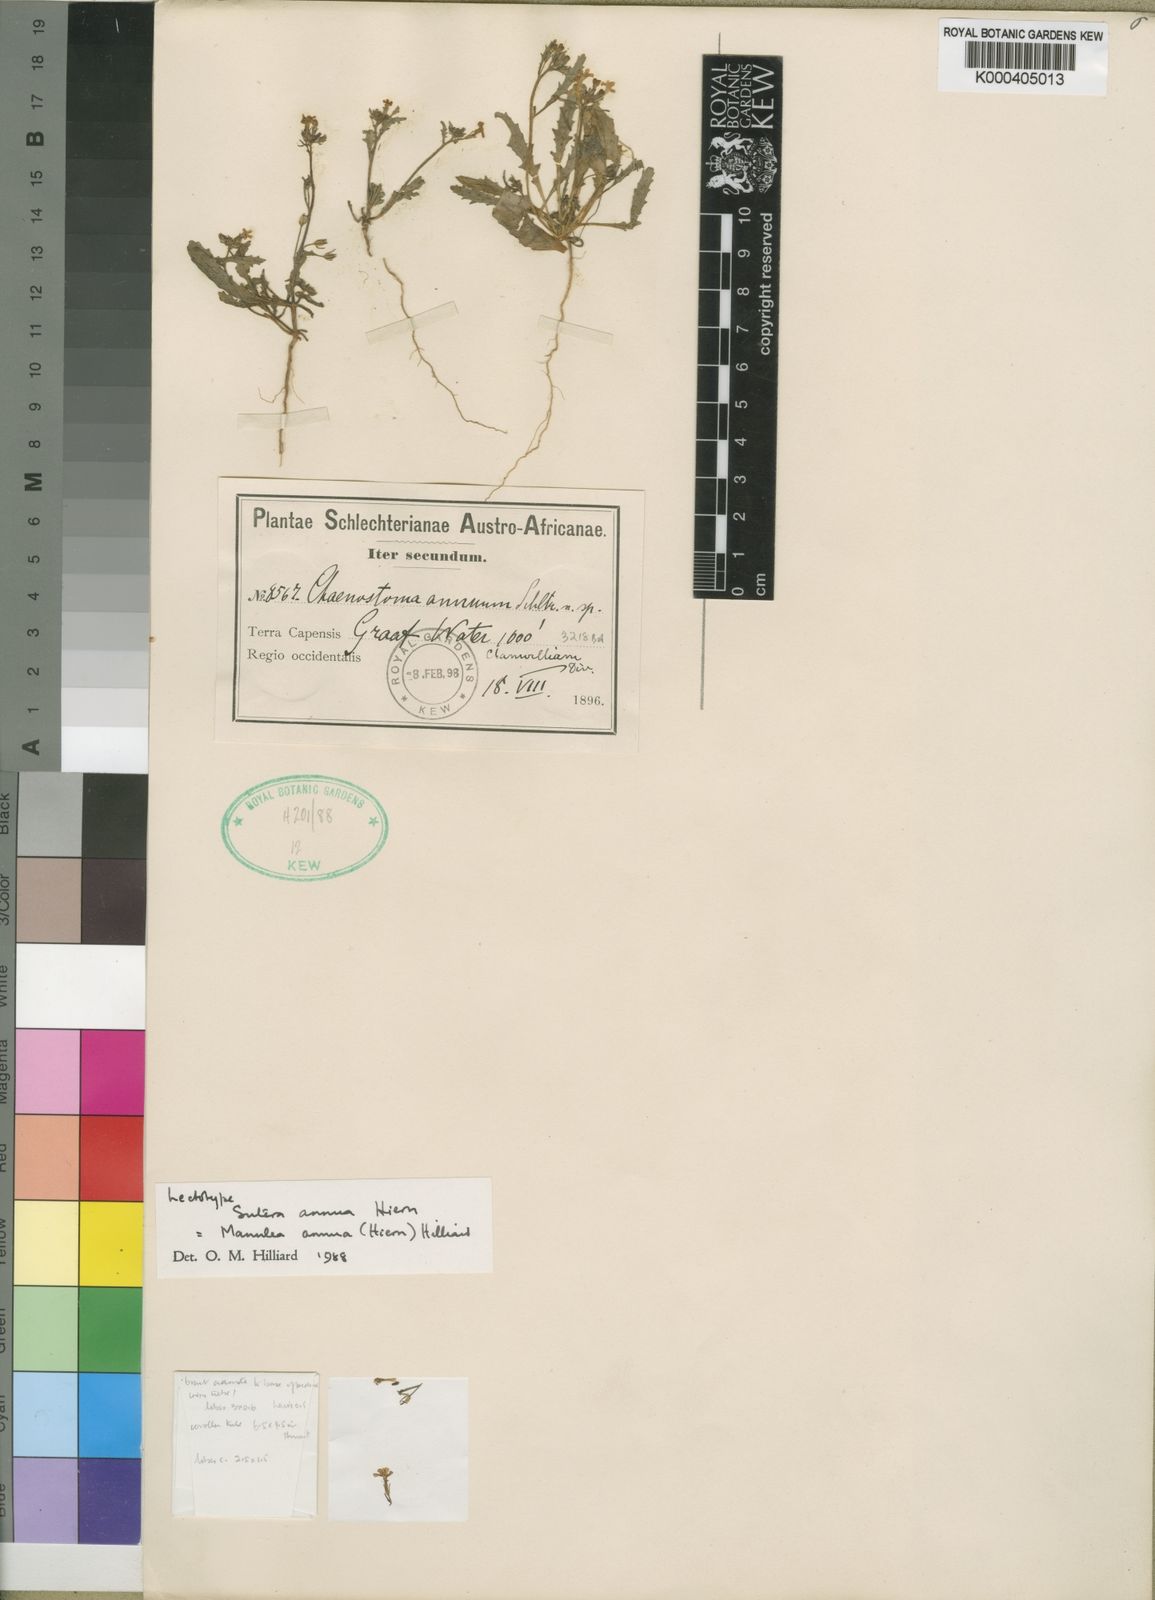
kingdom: Plantae
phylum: Tracheophyta
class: Magnoliopsida
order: Lamiales
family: Scrophulariaceae
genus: Manulea
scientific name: Manulea annua
